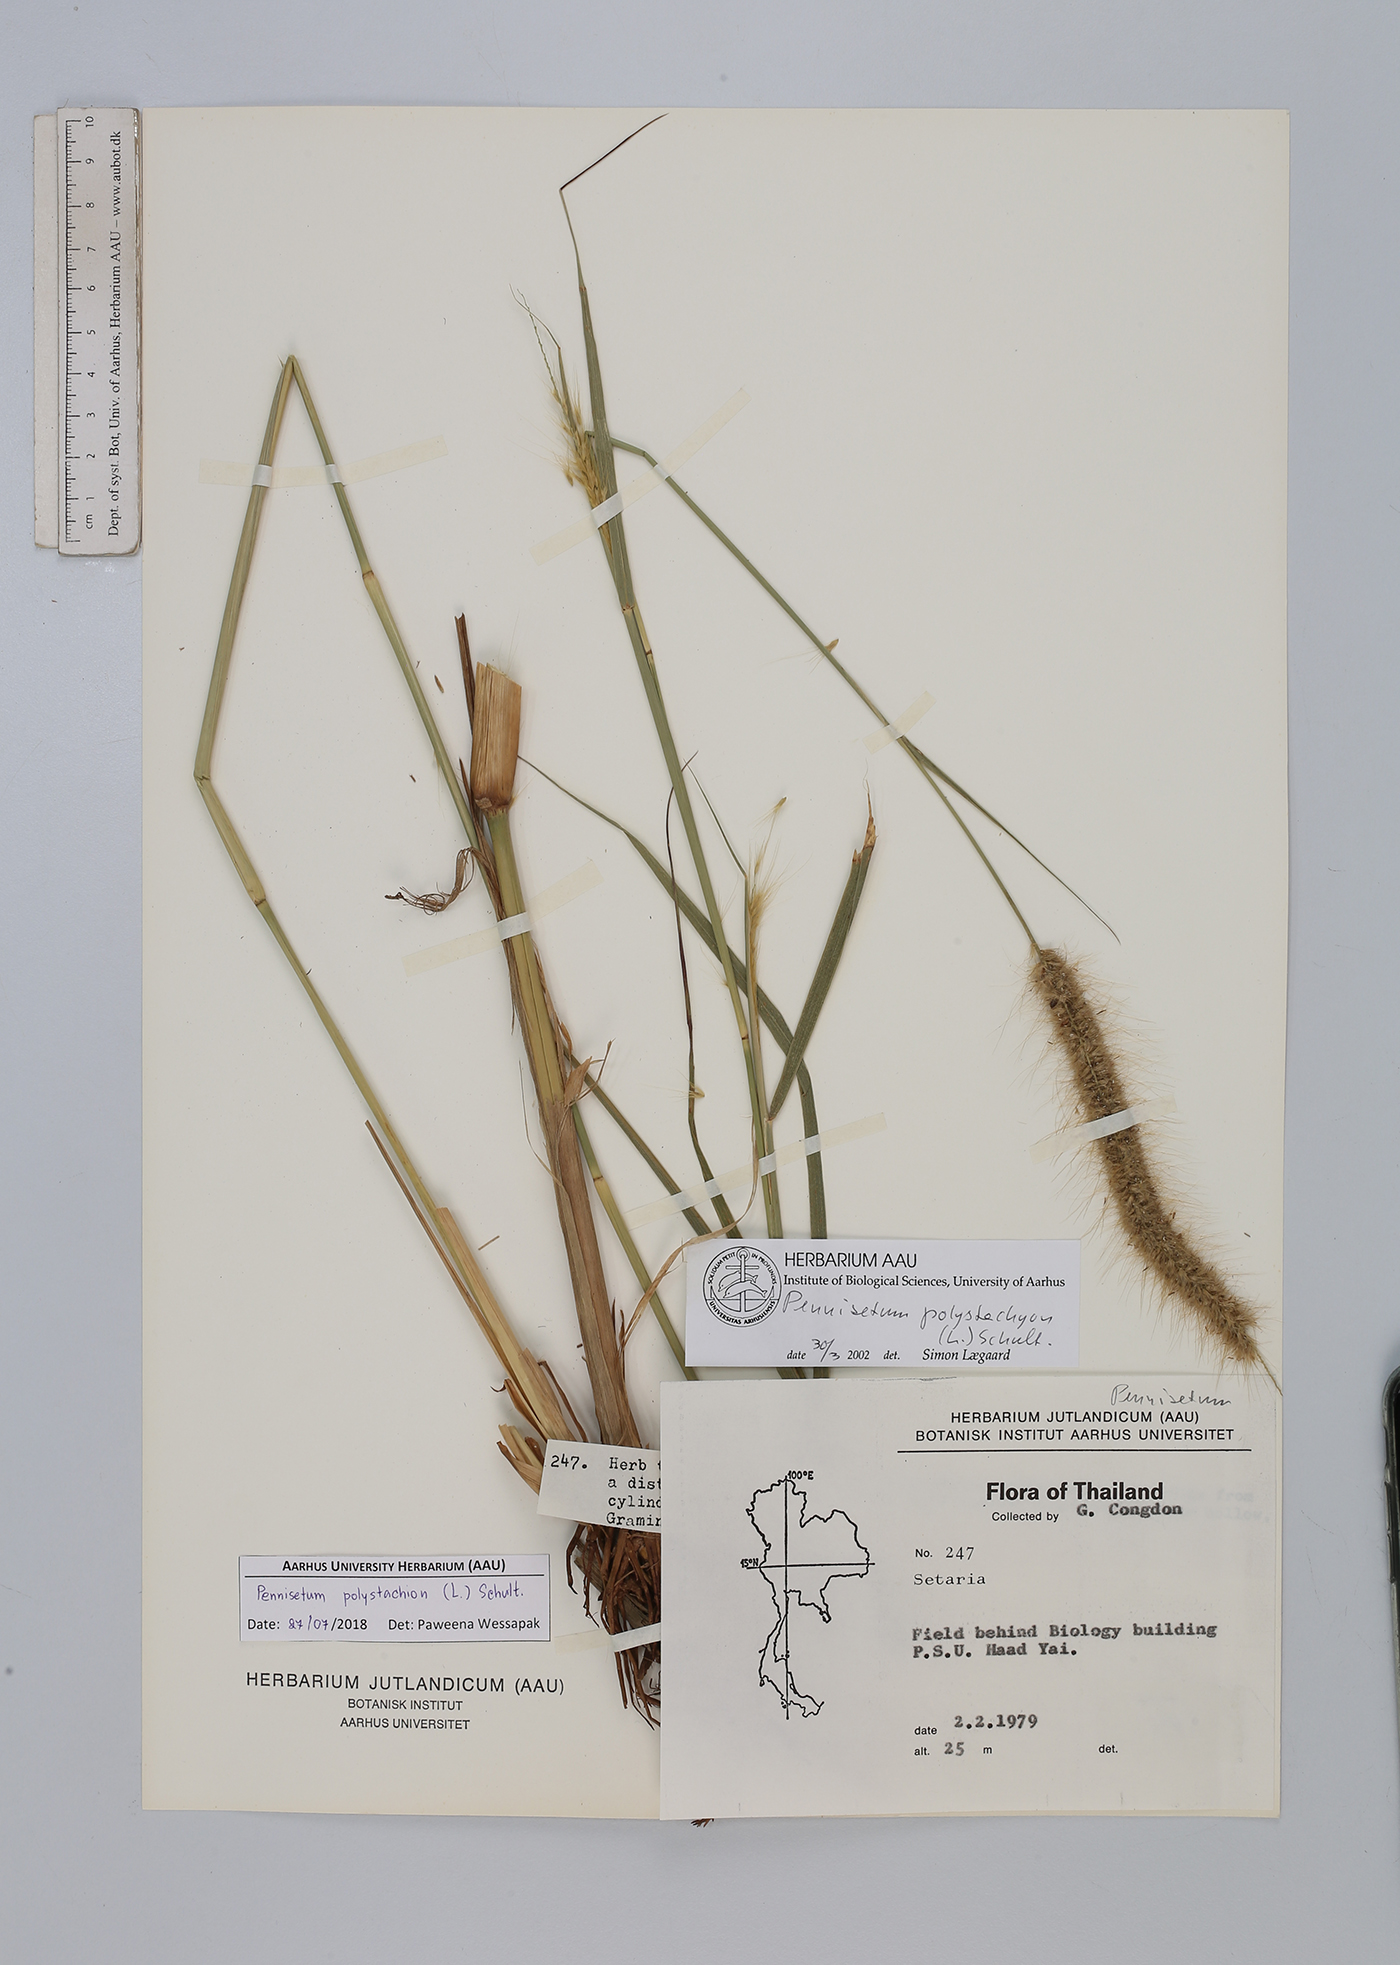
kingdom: Plantae
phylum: Tracheophyta
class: Liliopsida
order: Poales
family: Poaceae
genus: Setaria
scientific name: Setaria parviflora
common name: Knotroot bristle-grass
